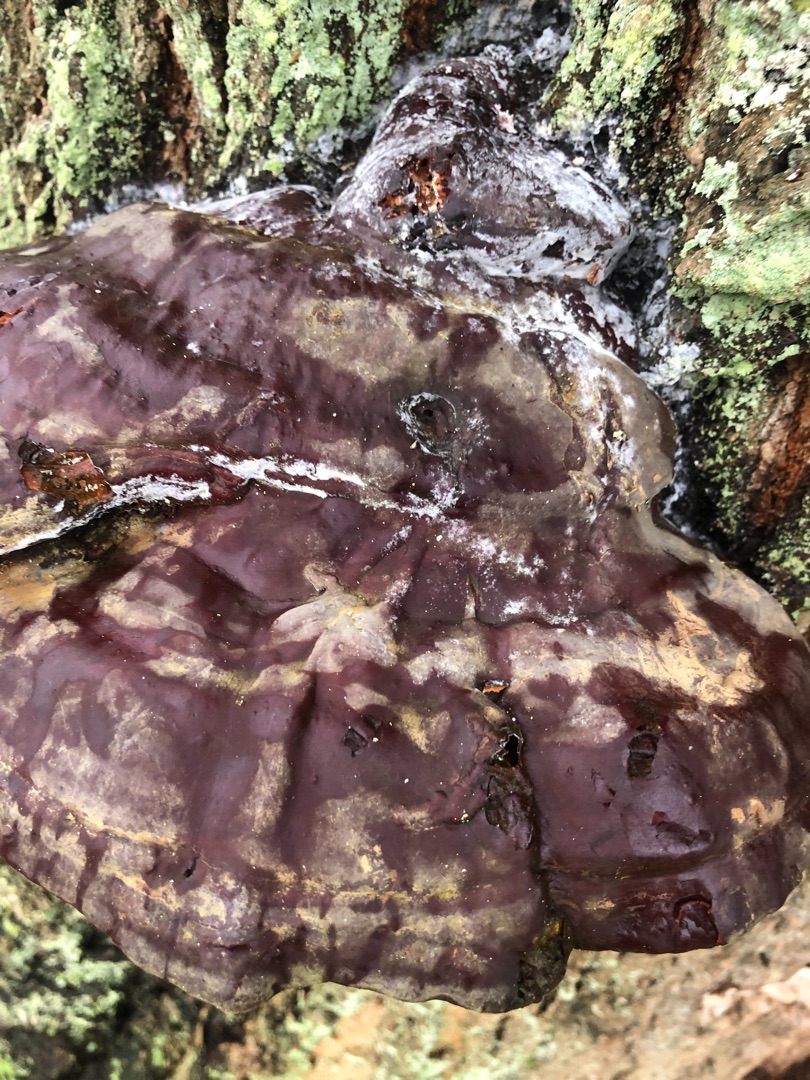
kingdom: Fungi
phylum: Basidiomycota
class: Agaricomycetes
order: Polyporales
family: Polyporaceae
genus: Ganoderma
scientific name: Ganoderma pfeifferi
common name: Kobberrød lakporesvamp
